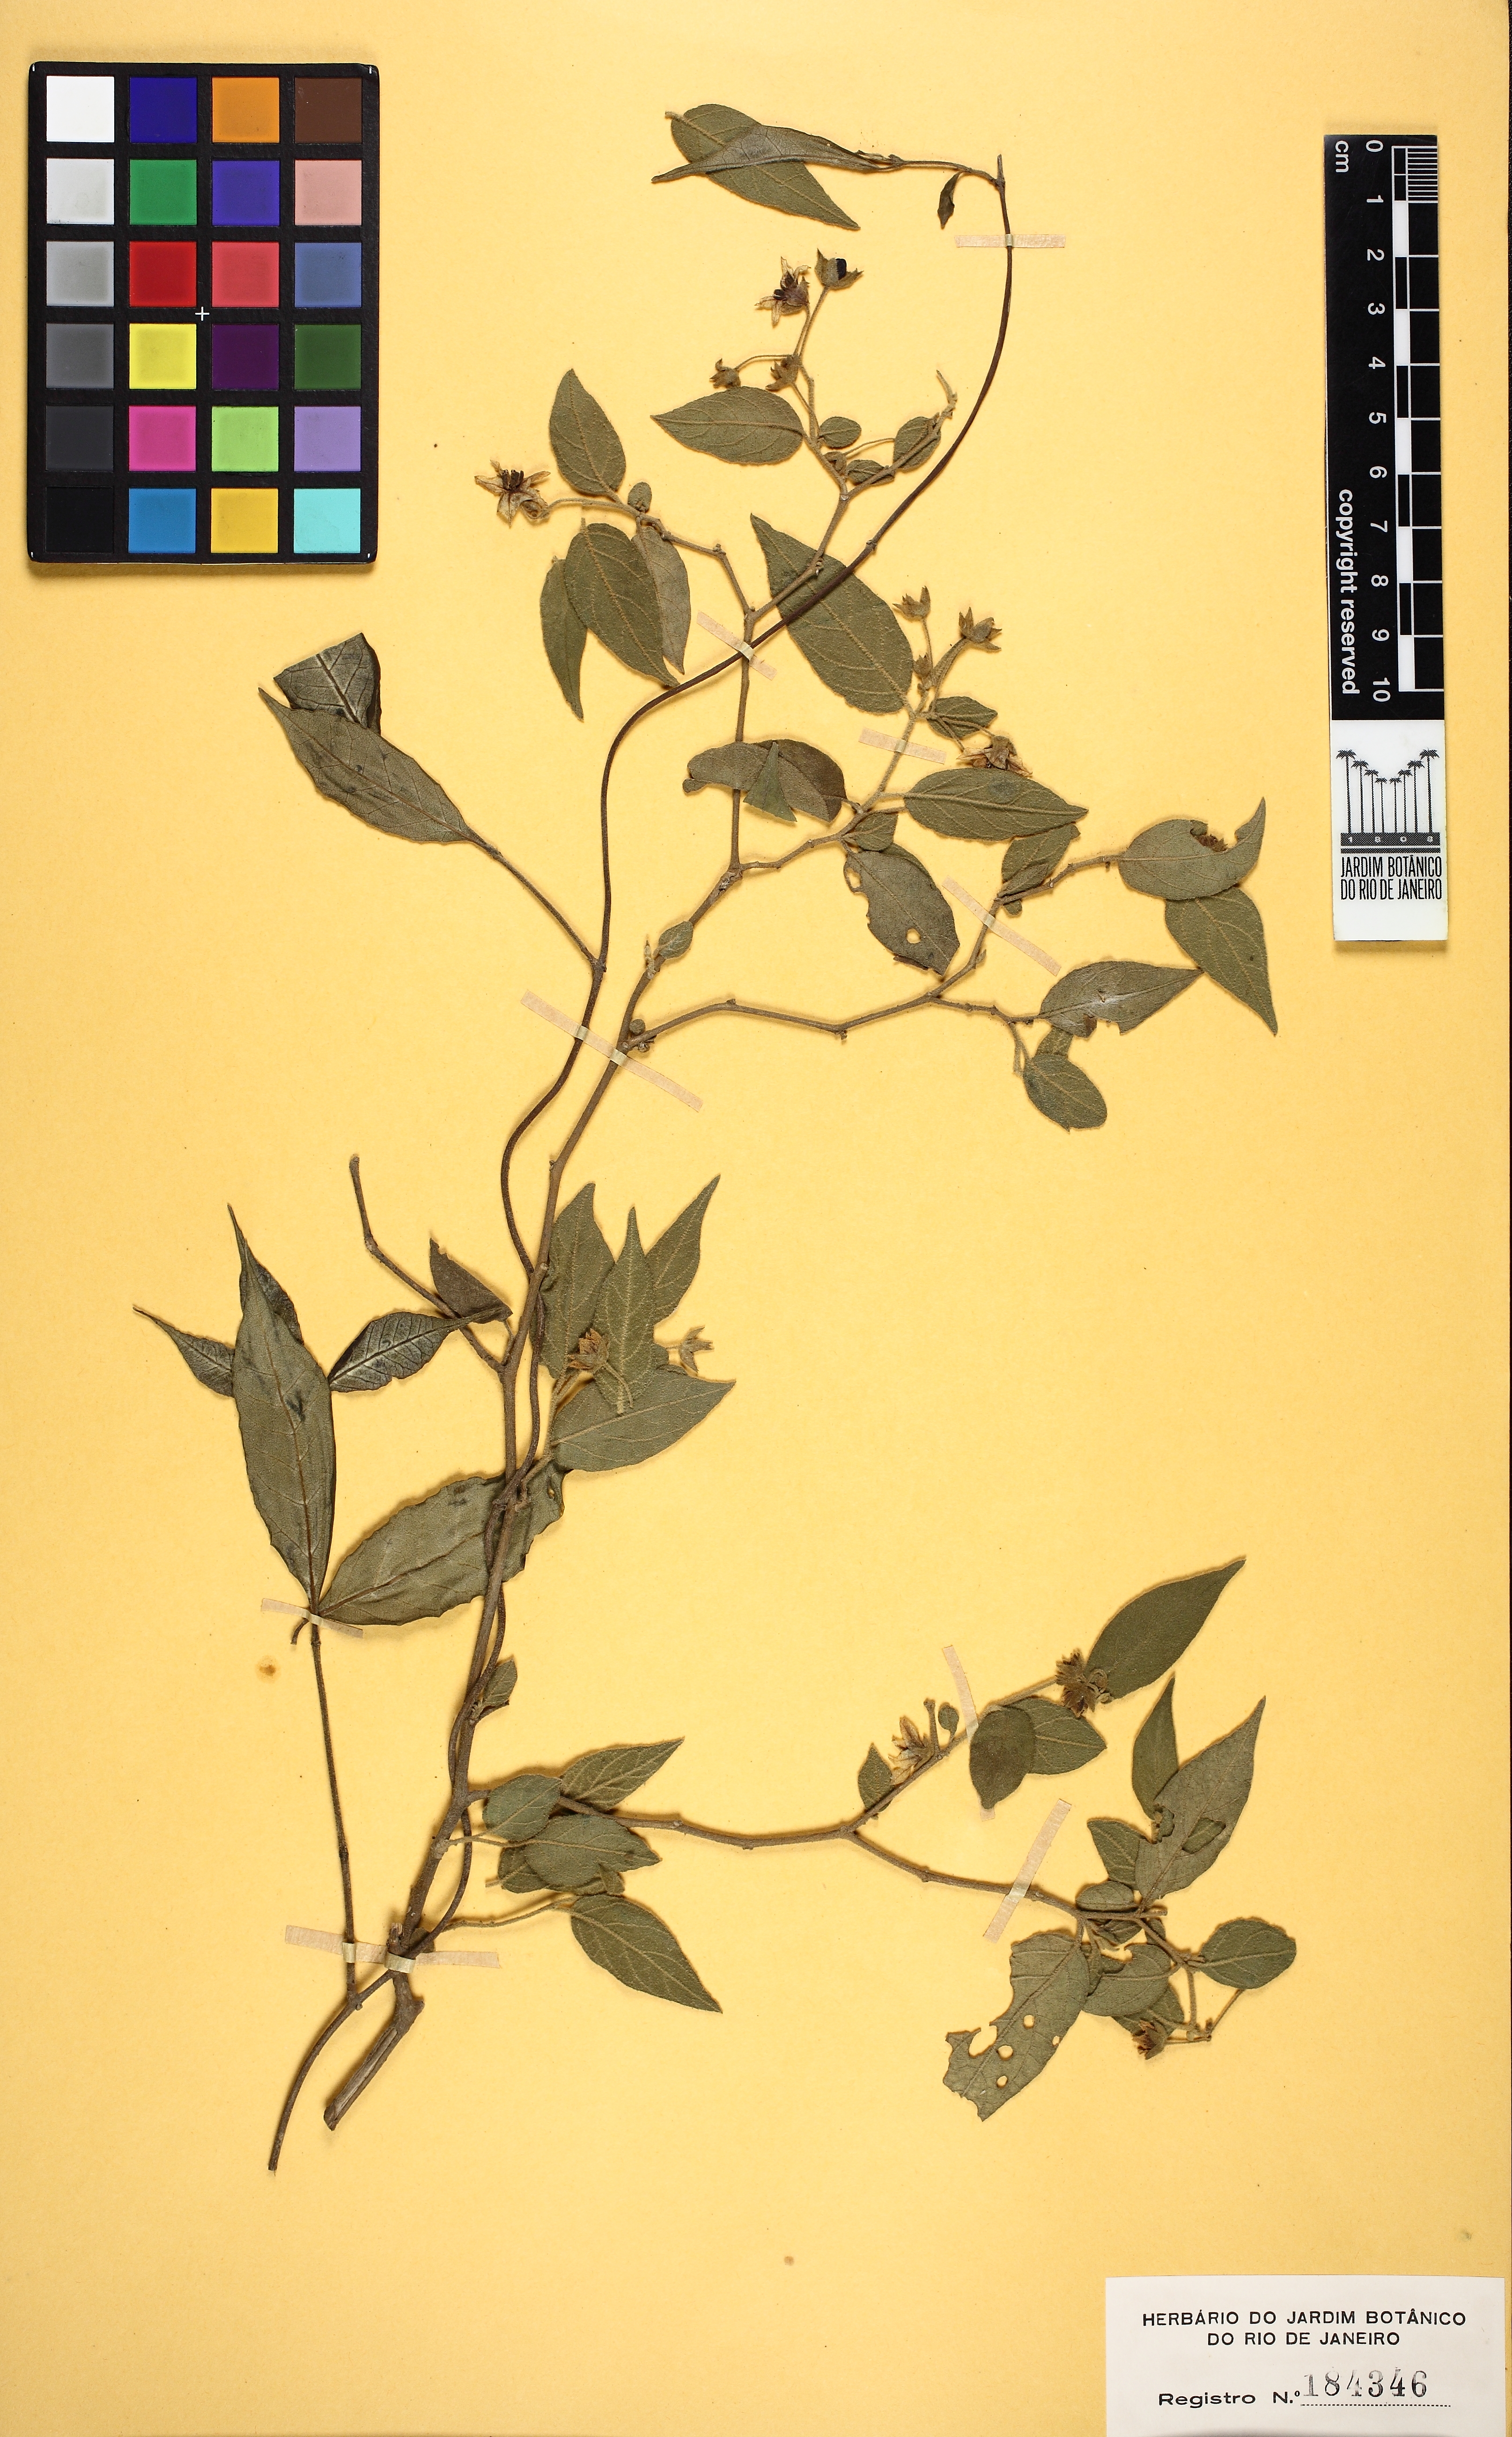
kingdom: Plantae
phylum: Tracheophyta
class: Magnoliopsida
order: Solanales
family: Solanaceae
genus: Solanum
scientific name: Solanum didymum
